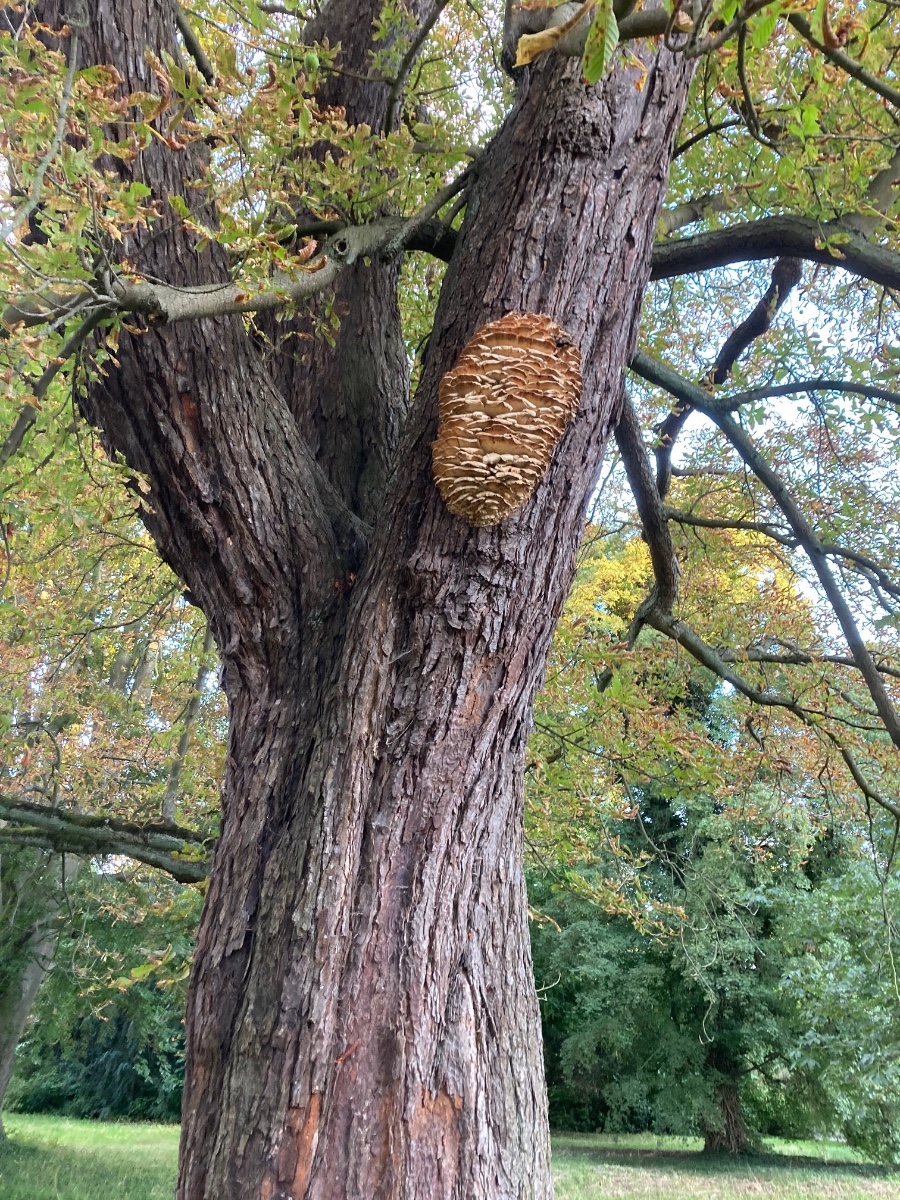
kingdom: Fungi
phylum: Basidiomycota
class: Agaricomycetes
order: Polyporales
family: Meruliaceae
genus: Climacodon
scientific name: Climacodon septentrionalis
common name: kæmpepigsvamp
